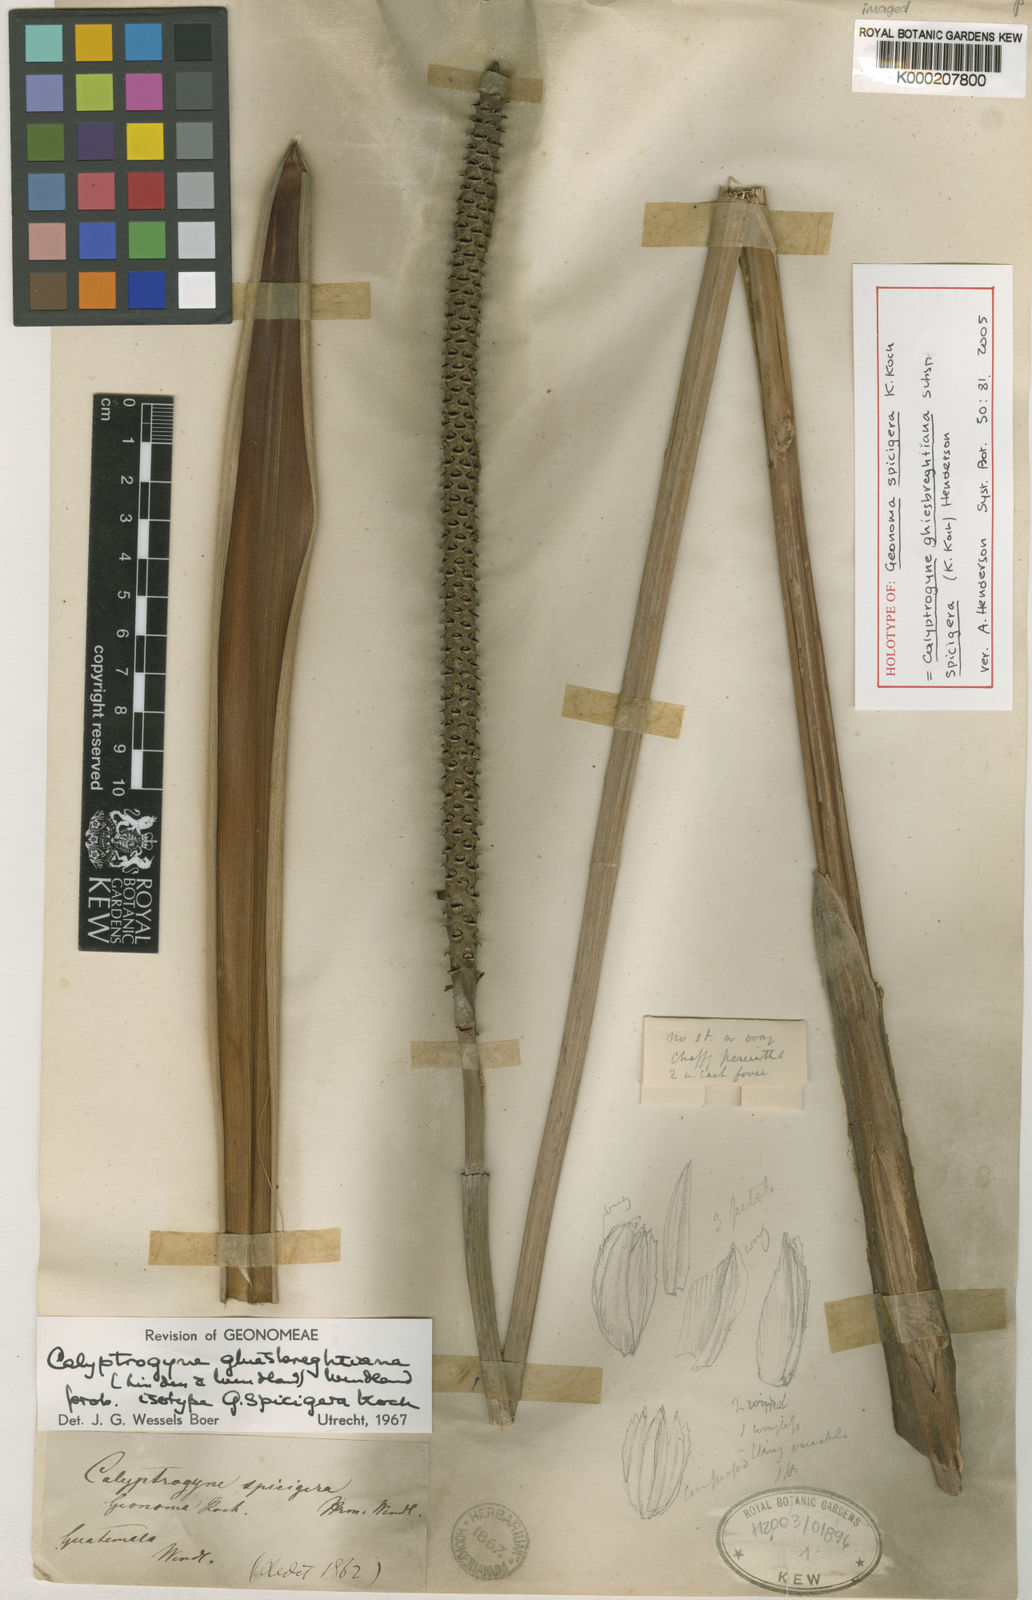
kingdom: Plantae
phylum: Tracheophyta
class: Liliopsida
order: Arecales
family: Arecaceae
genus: Calyptrogyne
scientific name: Calyptrogyne ghiesbreghtiana
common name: Coligallo
